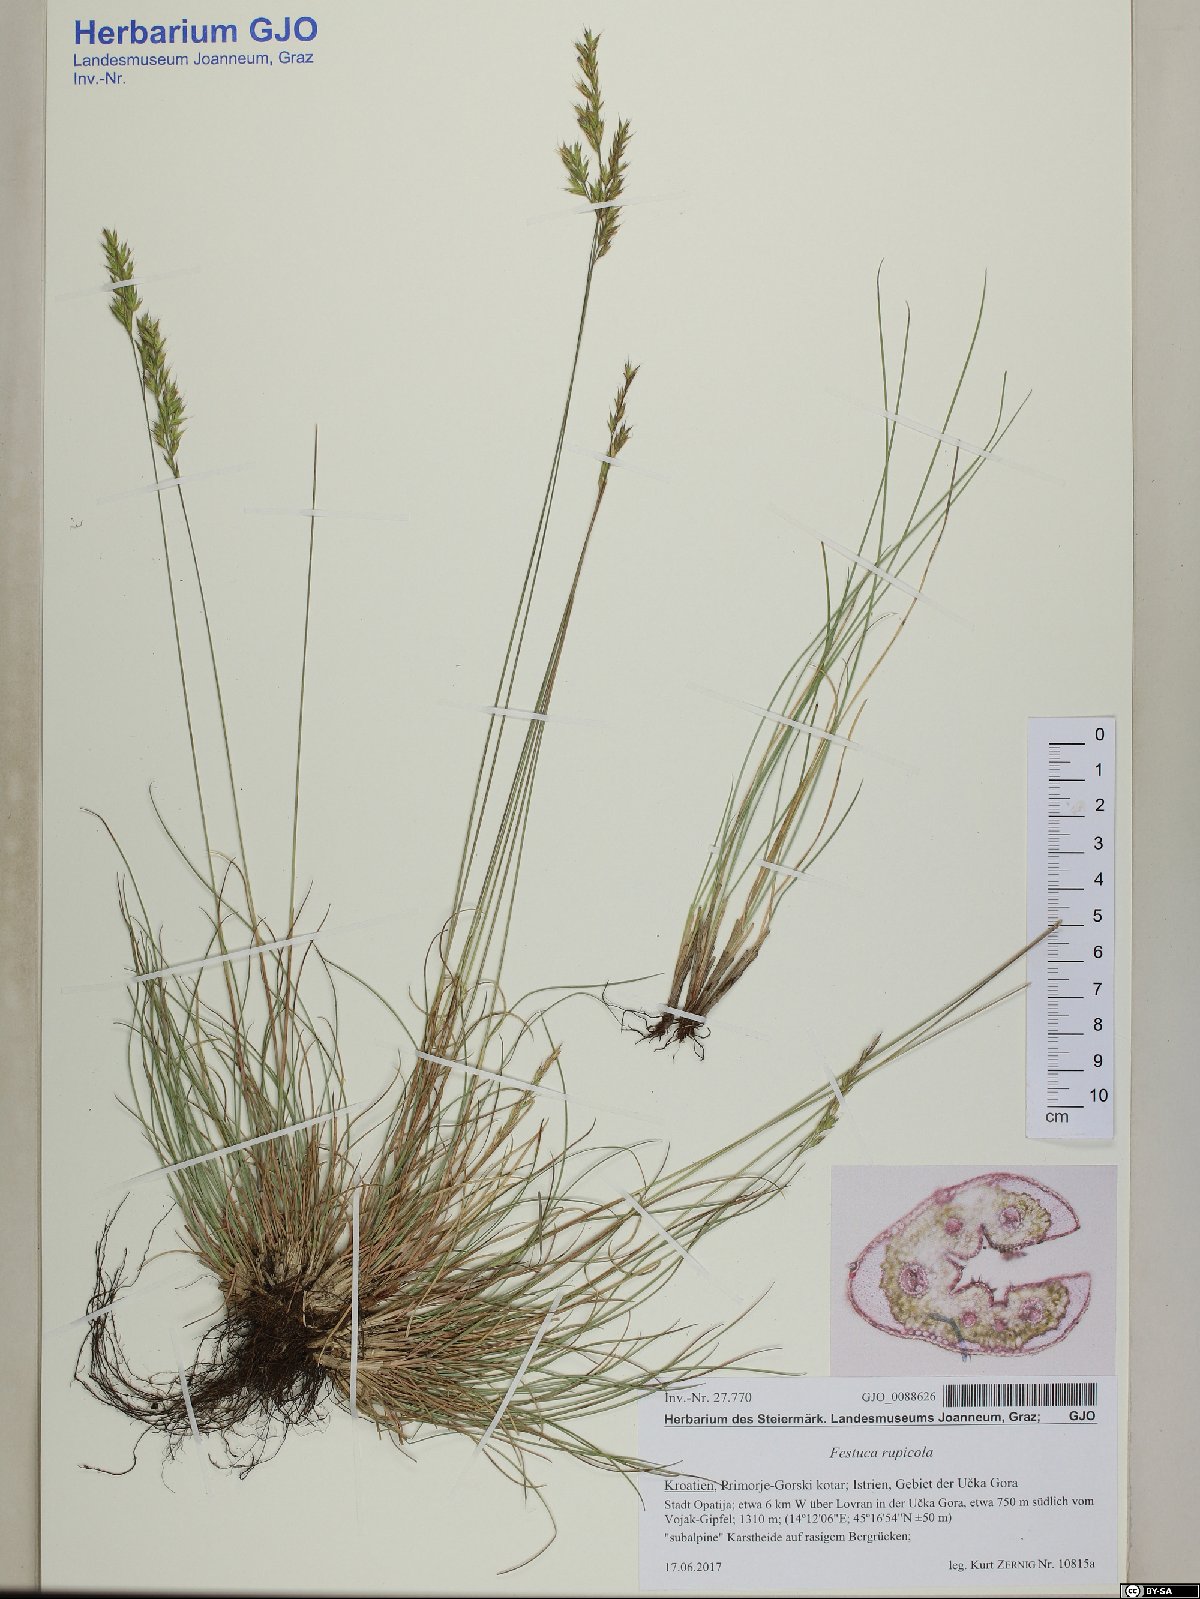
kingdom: Plantae
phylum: Tracheophyta
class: Liliopsida
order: Poales
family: Poaceae
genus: Festuca
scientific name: Festuca rupicola
